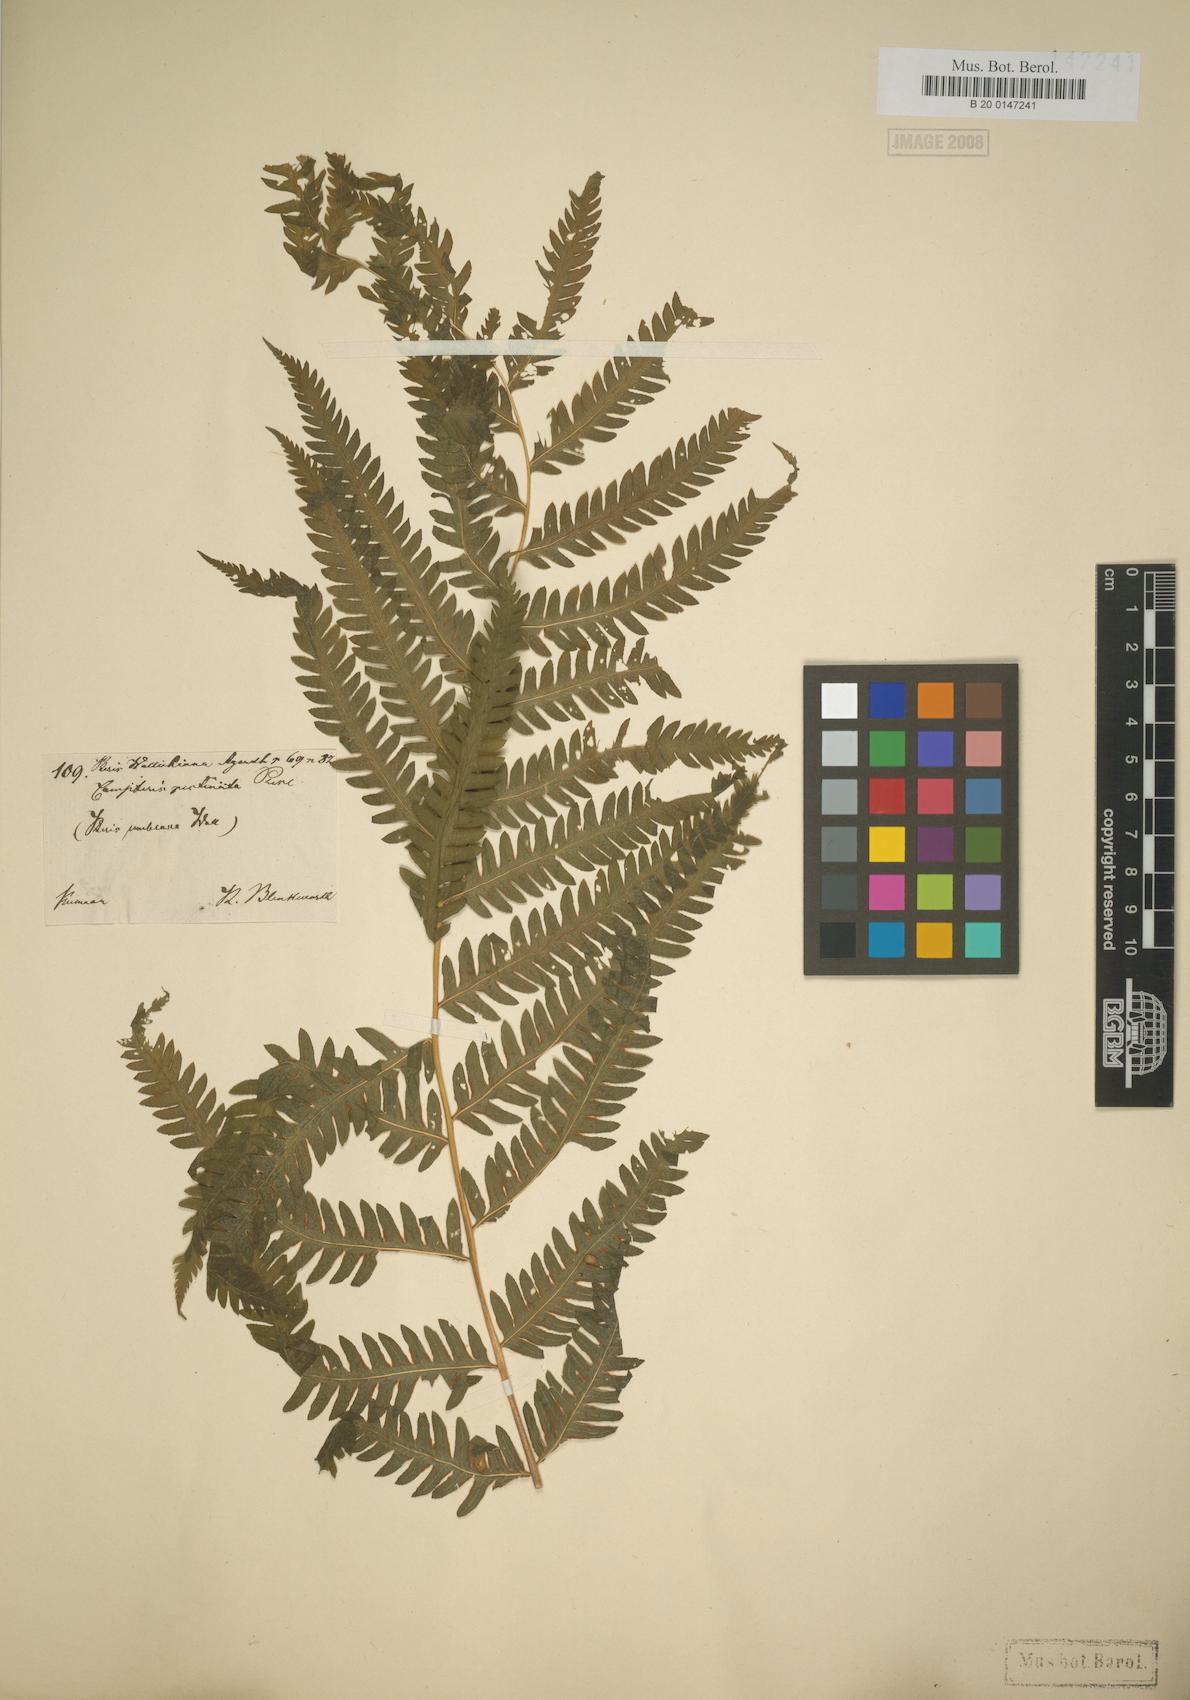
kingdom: Plantae
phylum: Tracheophyta
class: Polypodiopsida
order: Polypodiales
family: Pteridaceae
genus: Pteris
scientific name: Pteris wallichiana
